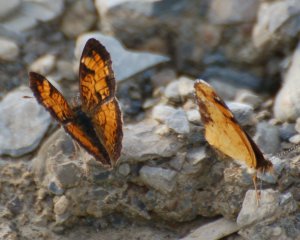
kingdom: Animalia
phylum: Arthropoda
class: Insecta
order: Lepidoptera
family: Nymphalidae
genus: Phyciodes
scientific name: Phyciodes tharos
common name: Northern Crescent
